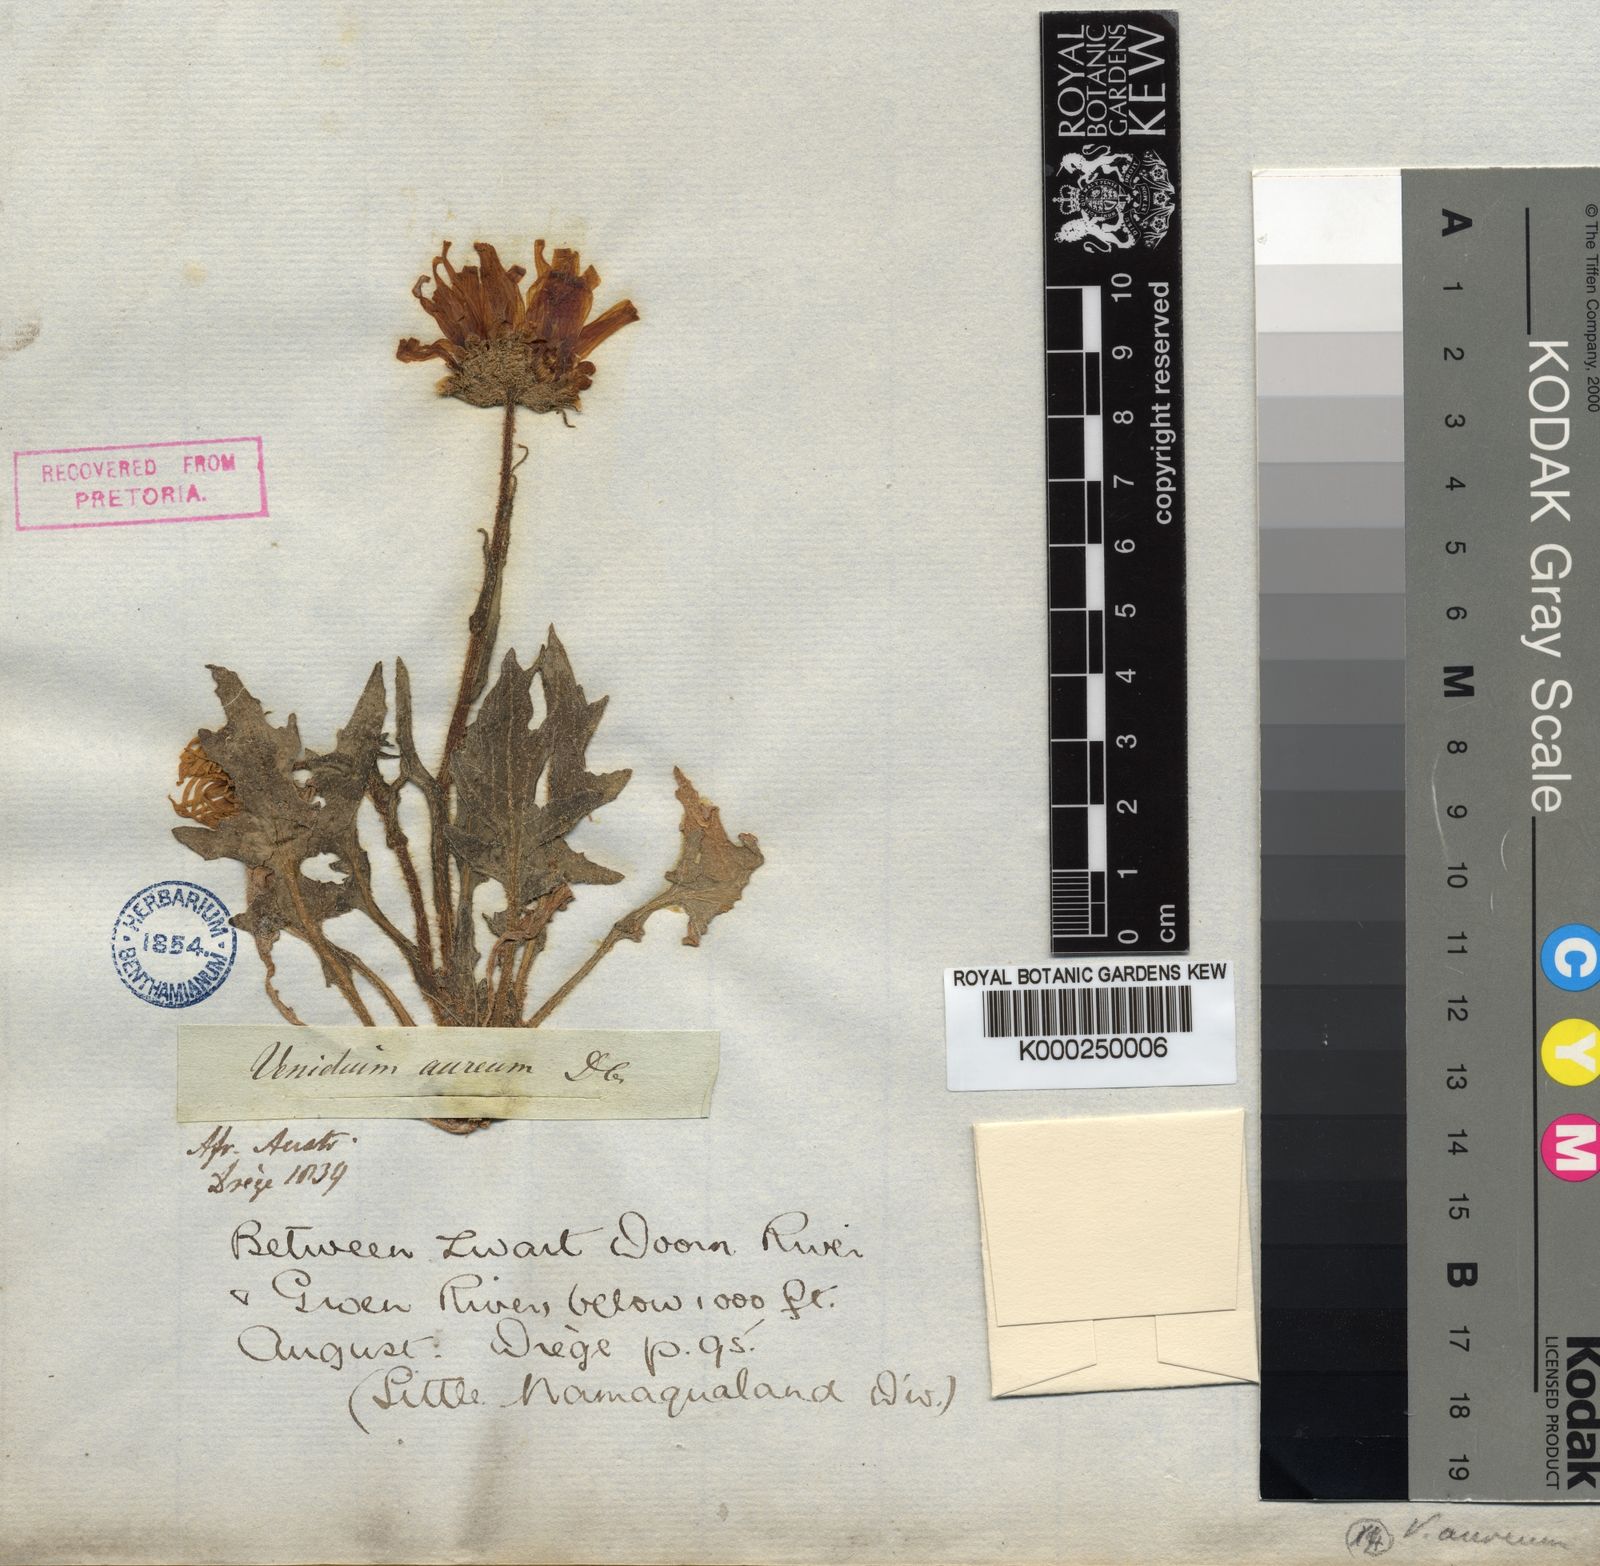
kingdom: Plantae
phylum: Tracheophyta
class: Magnoliopsida
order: Asterales
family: Asteraceae
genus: Arctotis
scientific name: Arctotis fastuosa
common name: Monarch of the veld
